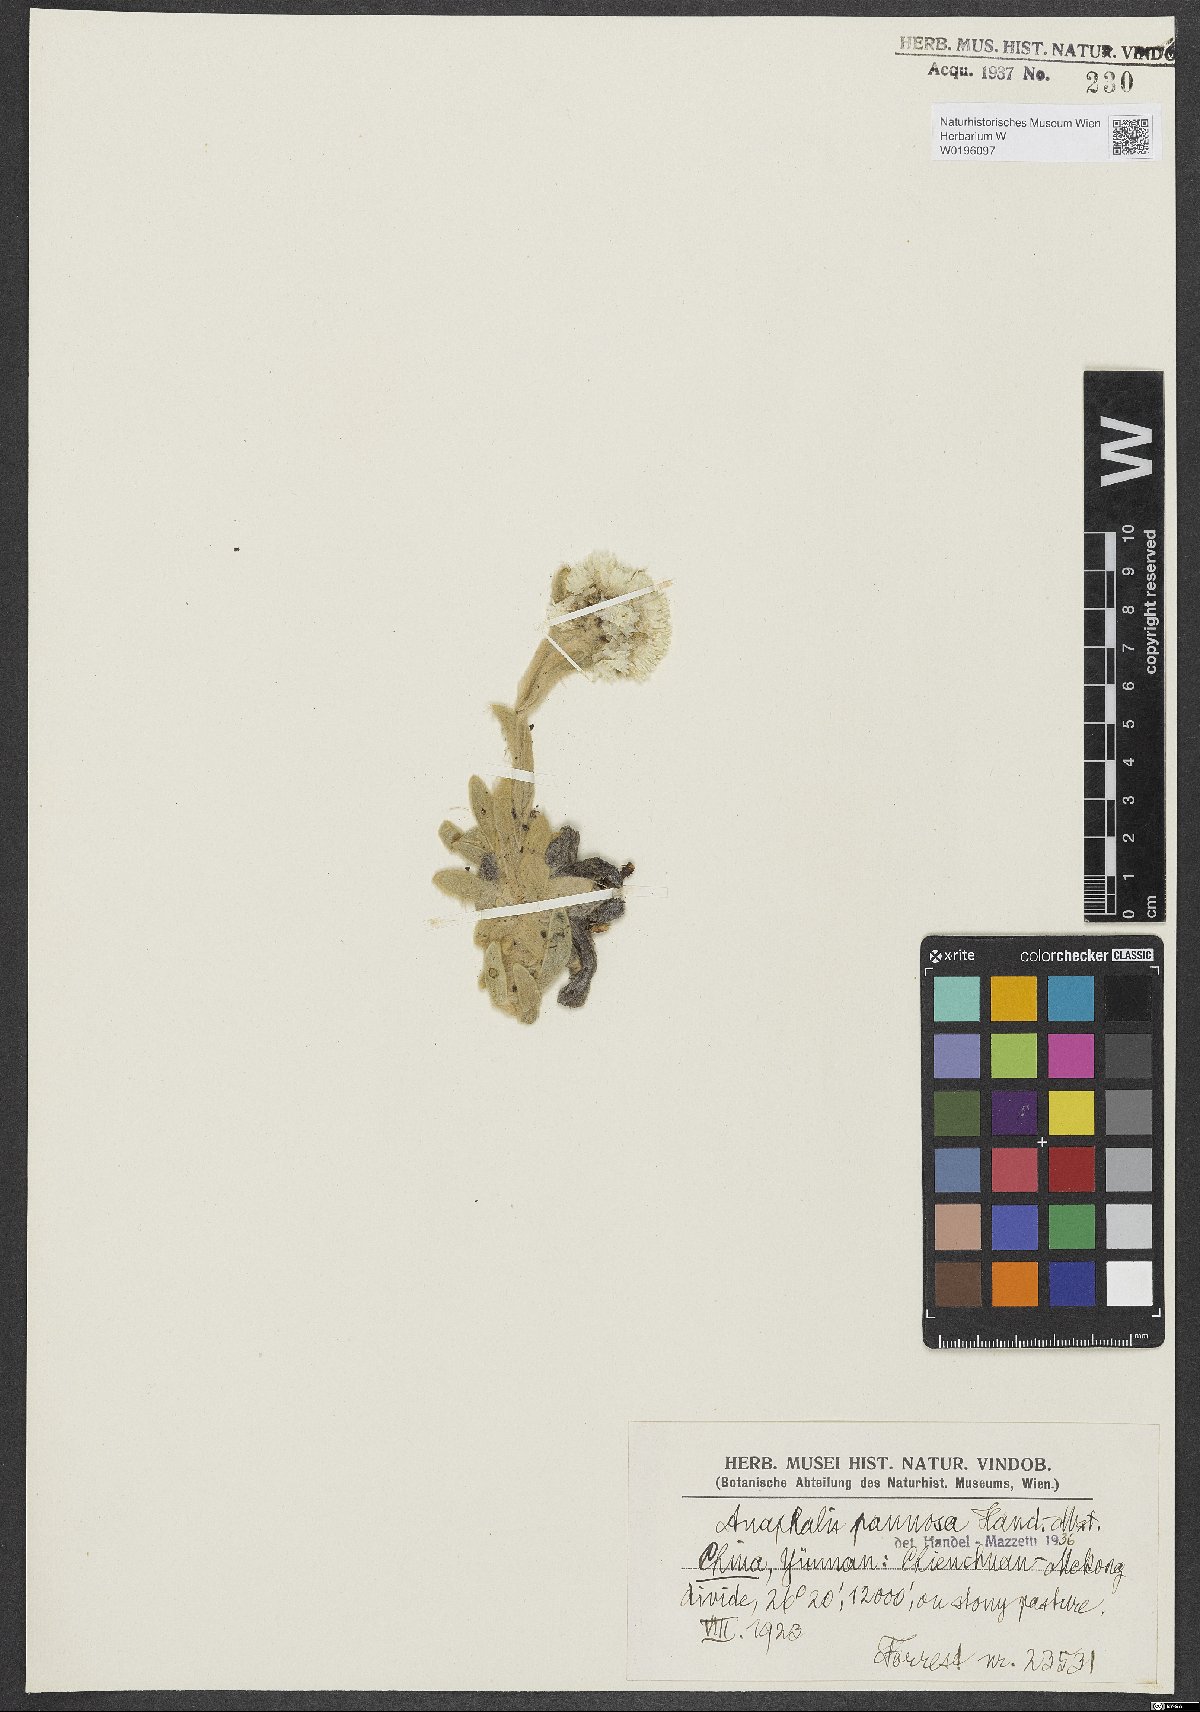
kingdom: Plantae
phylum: Tracheophyta
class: Magnoliopsida
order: Asterales
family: Asteraceae
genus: Anaphalis
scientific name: Anaphalis pannosa
